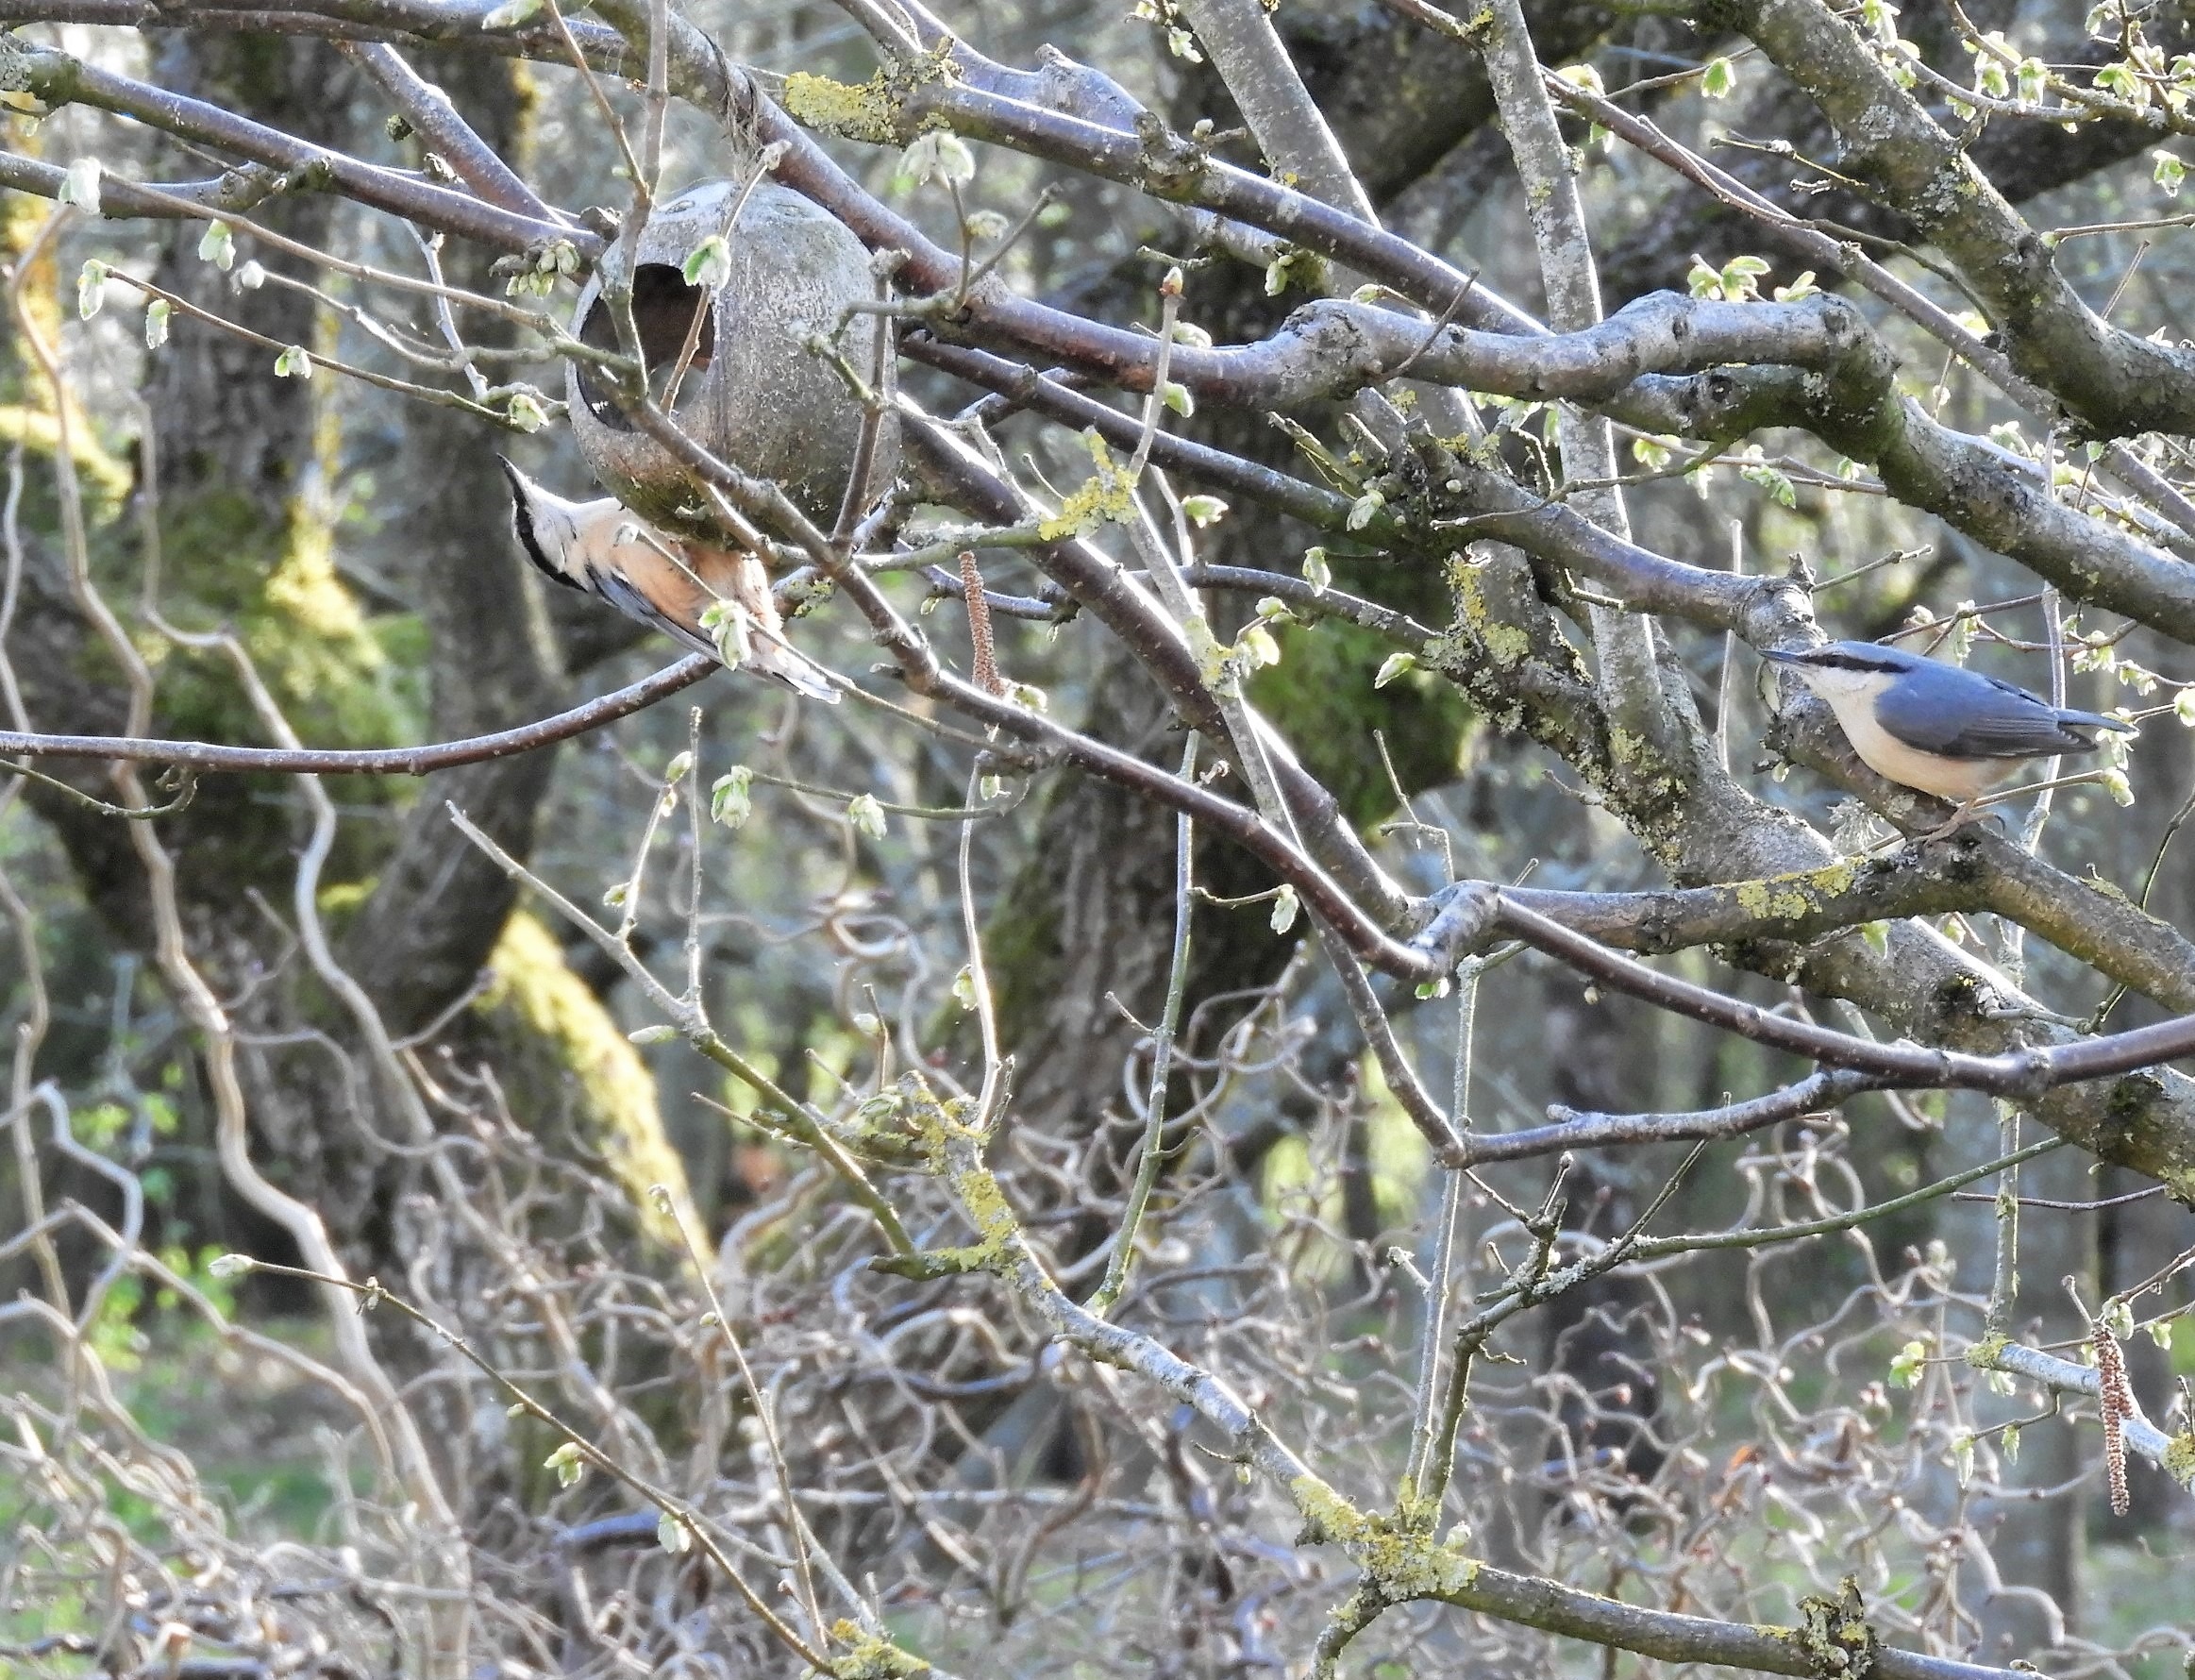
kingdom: Animalia
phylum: Chordata
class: Aves
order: Passeriformes
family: Sittidae
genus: Sitta
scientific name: Sitta europaea
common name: Spætmejse
